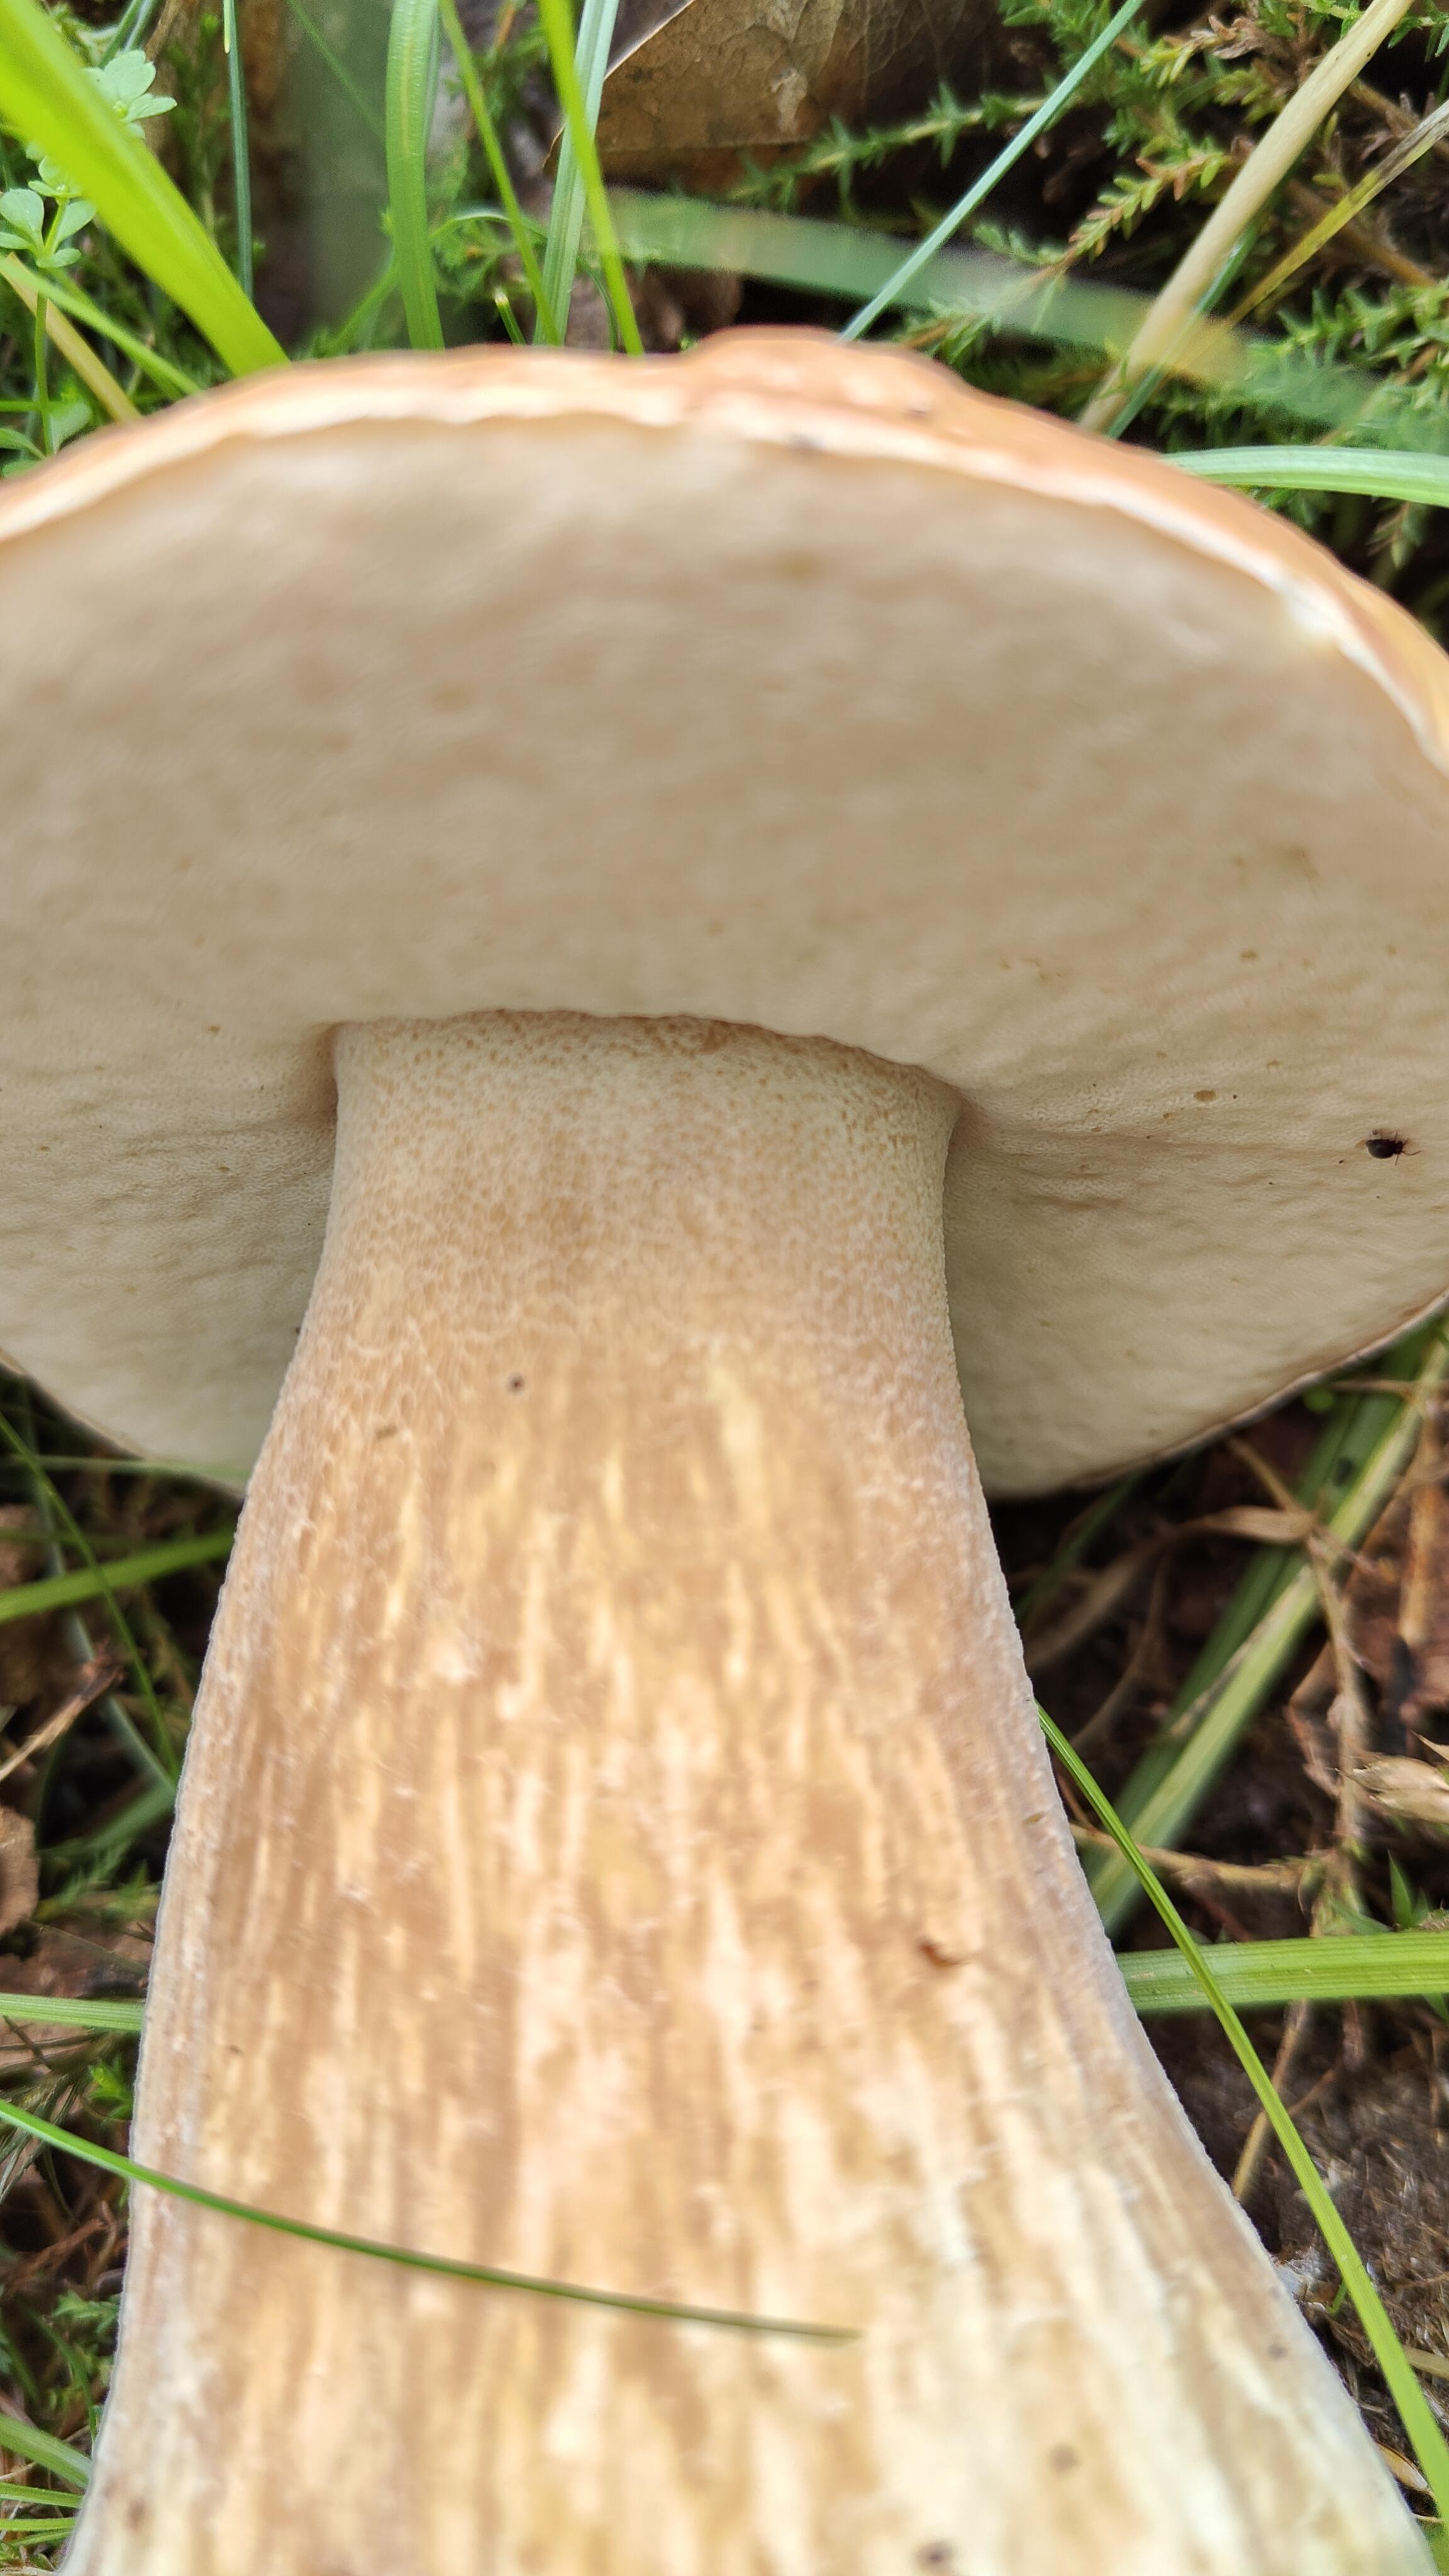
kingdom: Fungi
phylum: Basidiomycota
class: Agaricomycetes
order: Boletales
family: Boletaceae
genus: Boletus
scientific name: Boletus edulis
